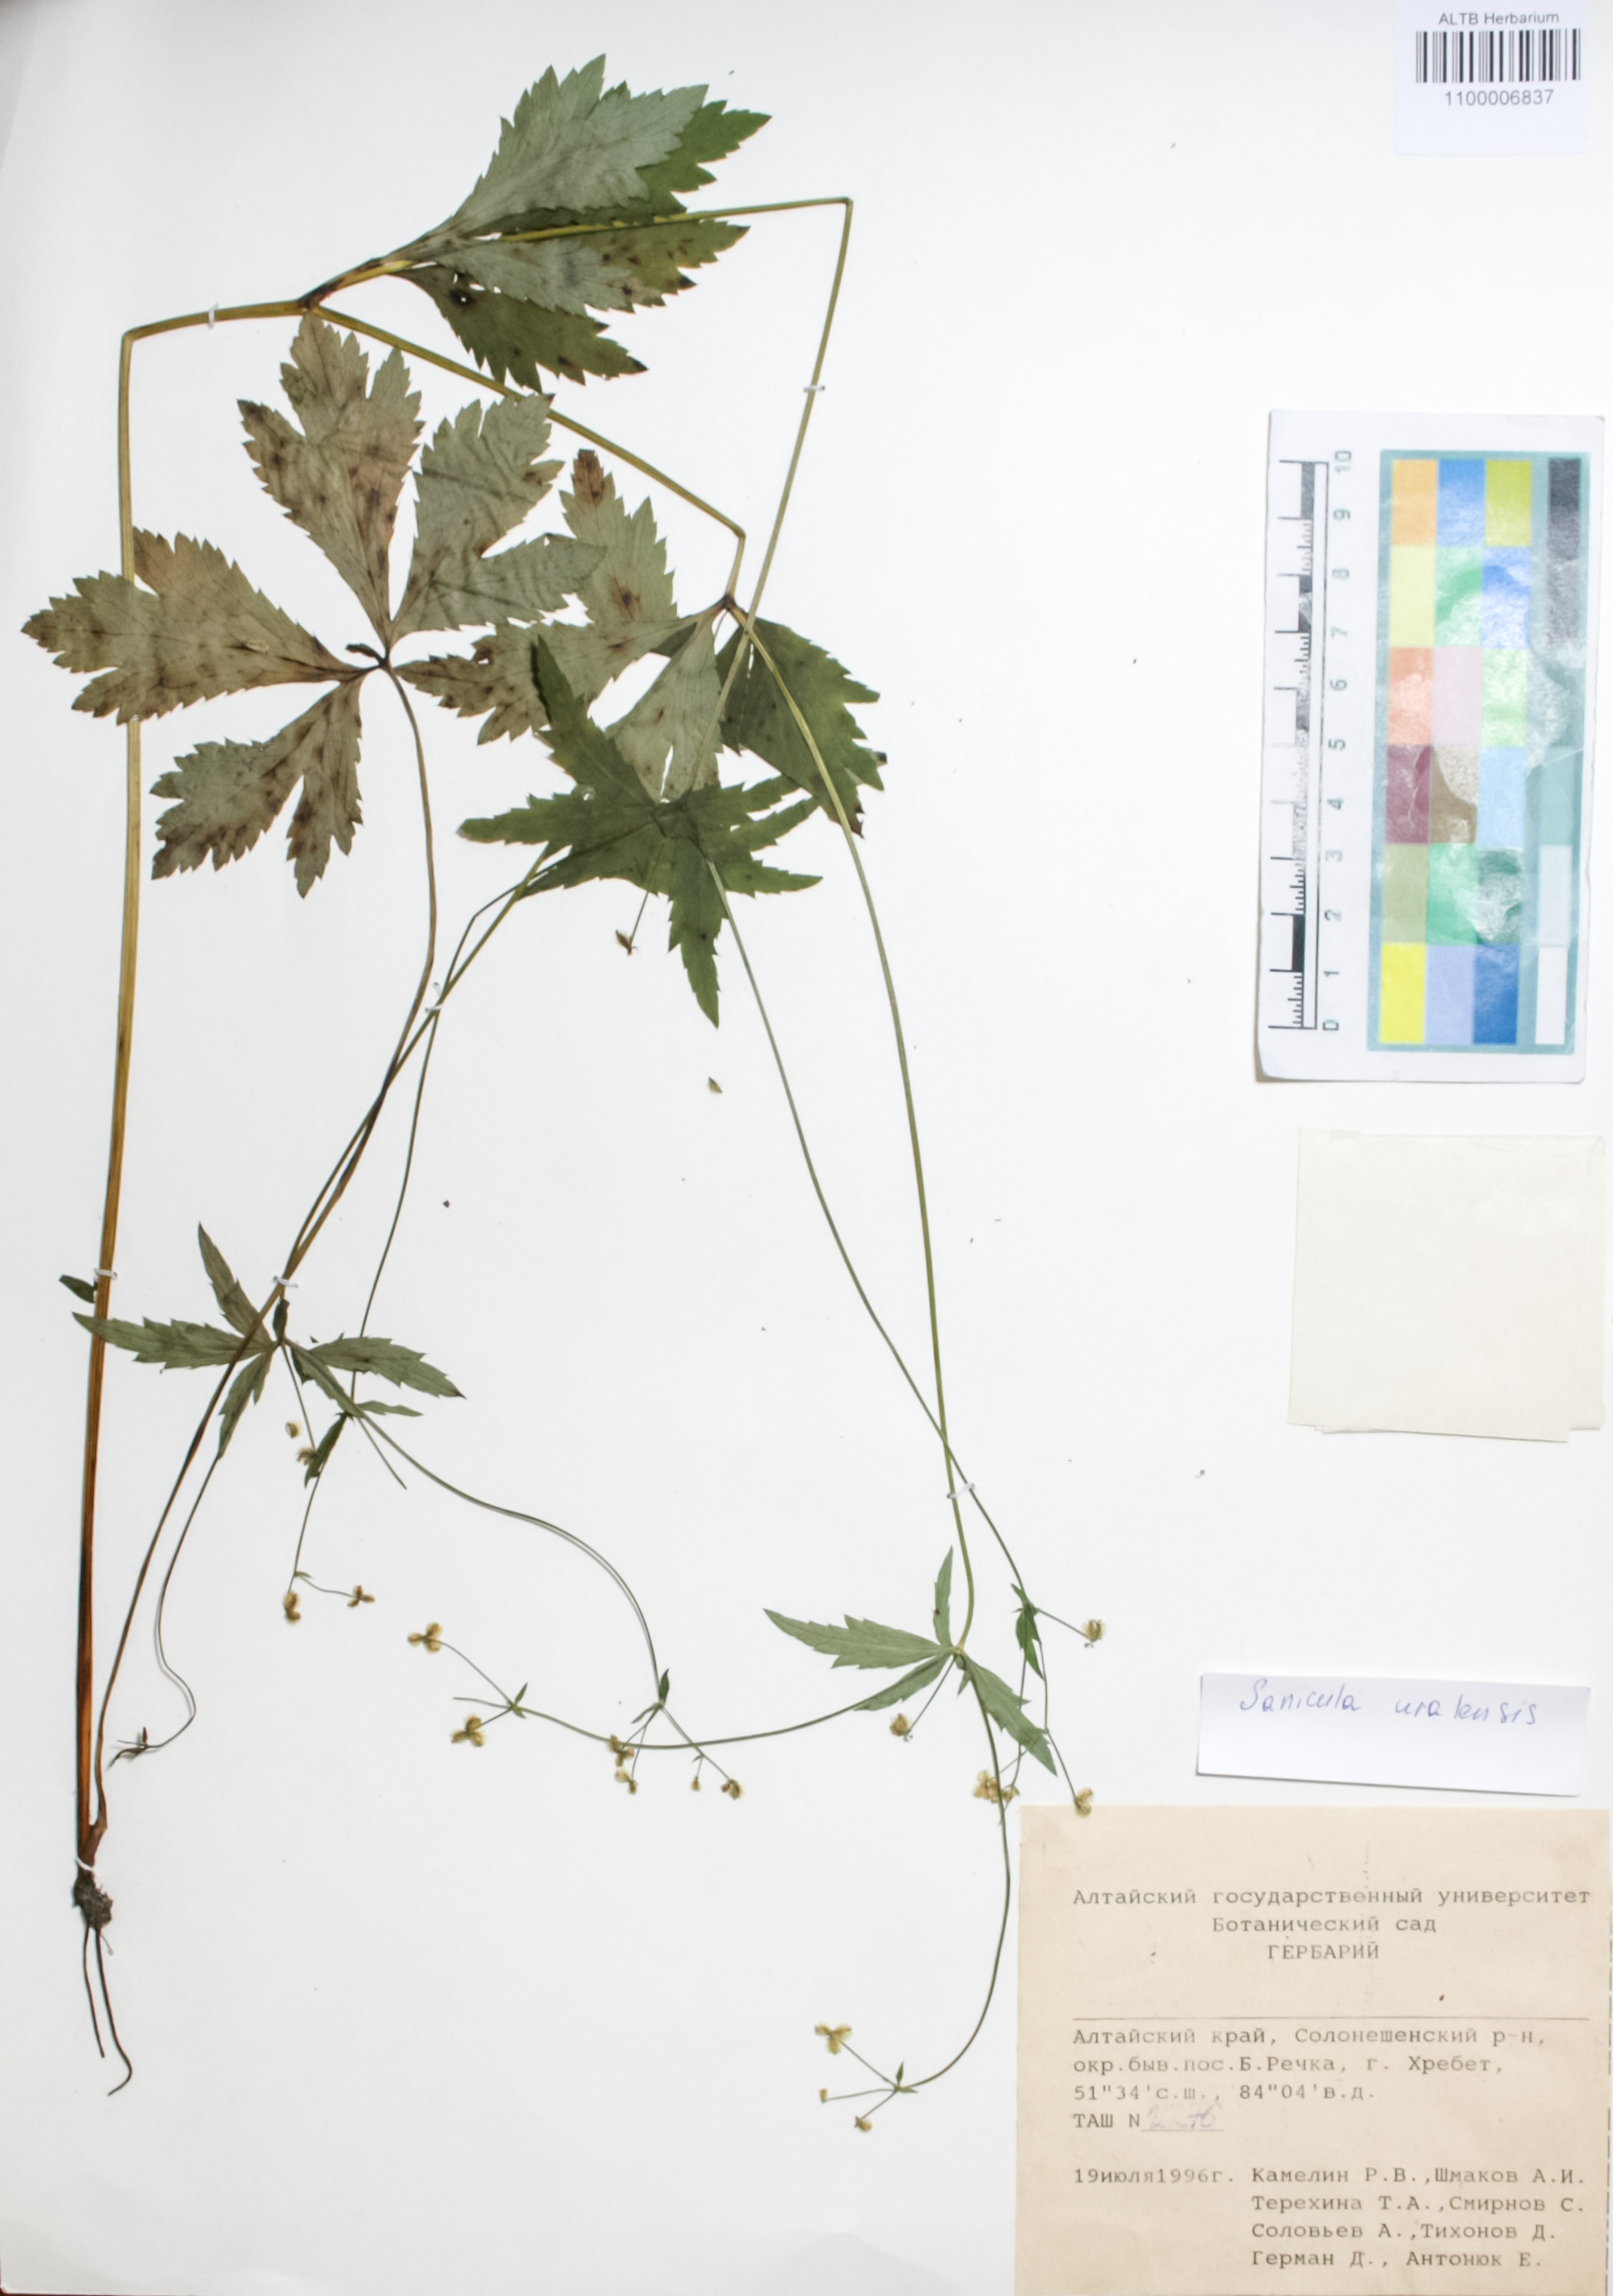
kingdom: Plantae
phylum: Tracheophyta
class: Magnoliopsida
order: Apiales
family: Apiaceae
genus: Sanicula
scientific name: Sanicula giraldii
